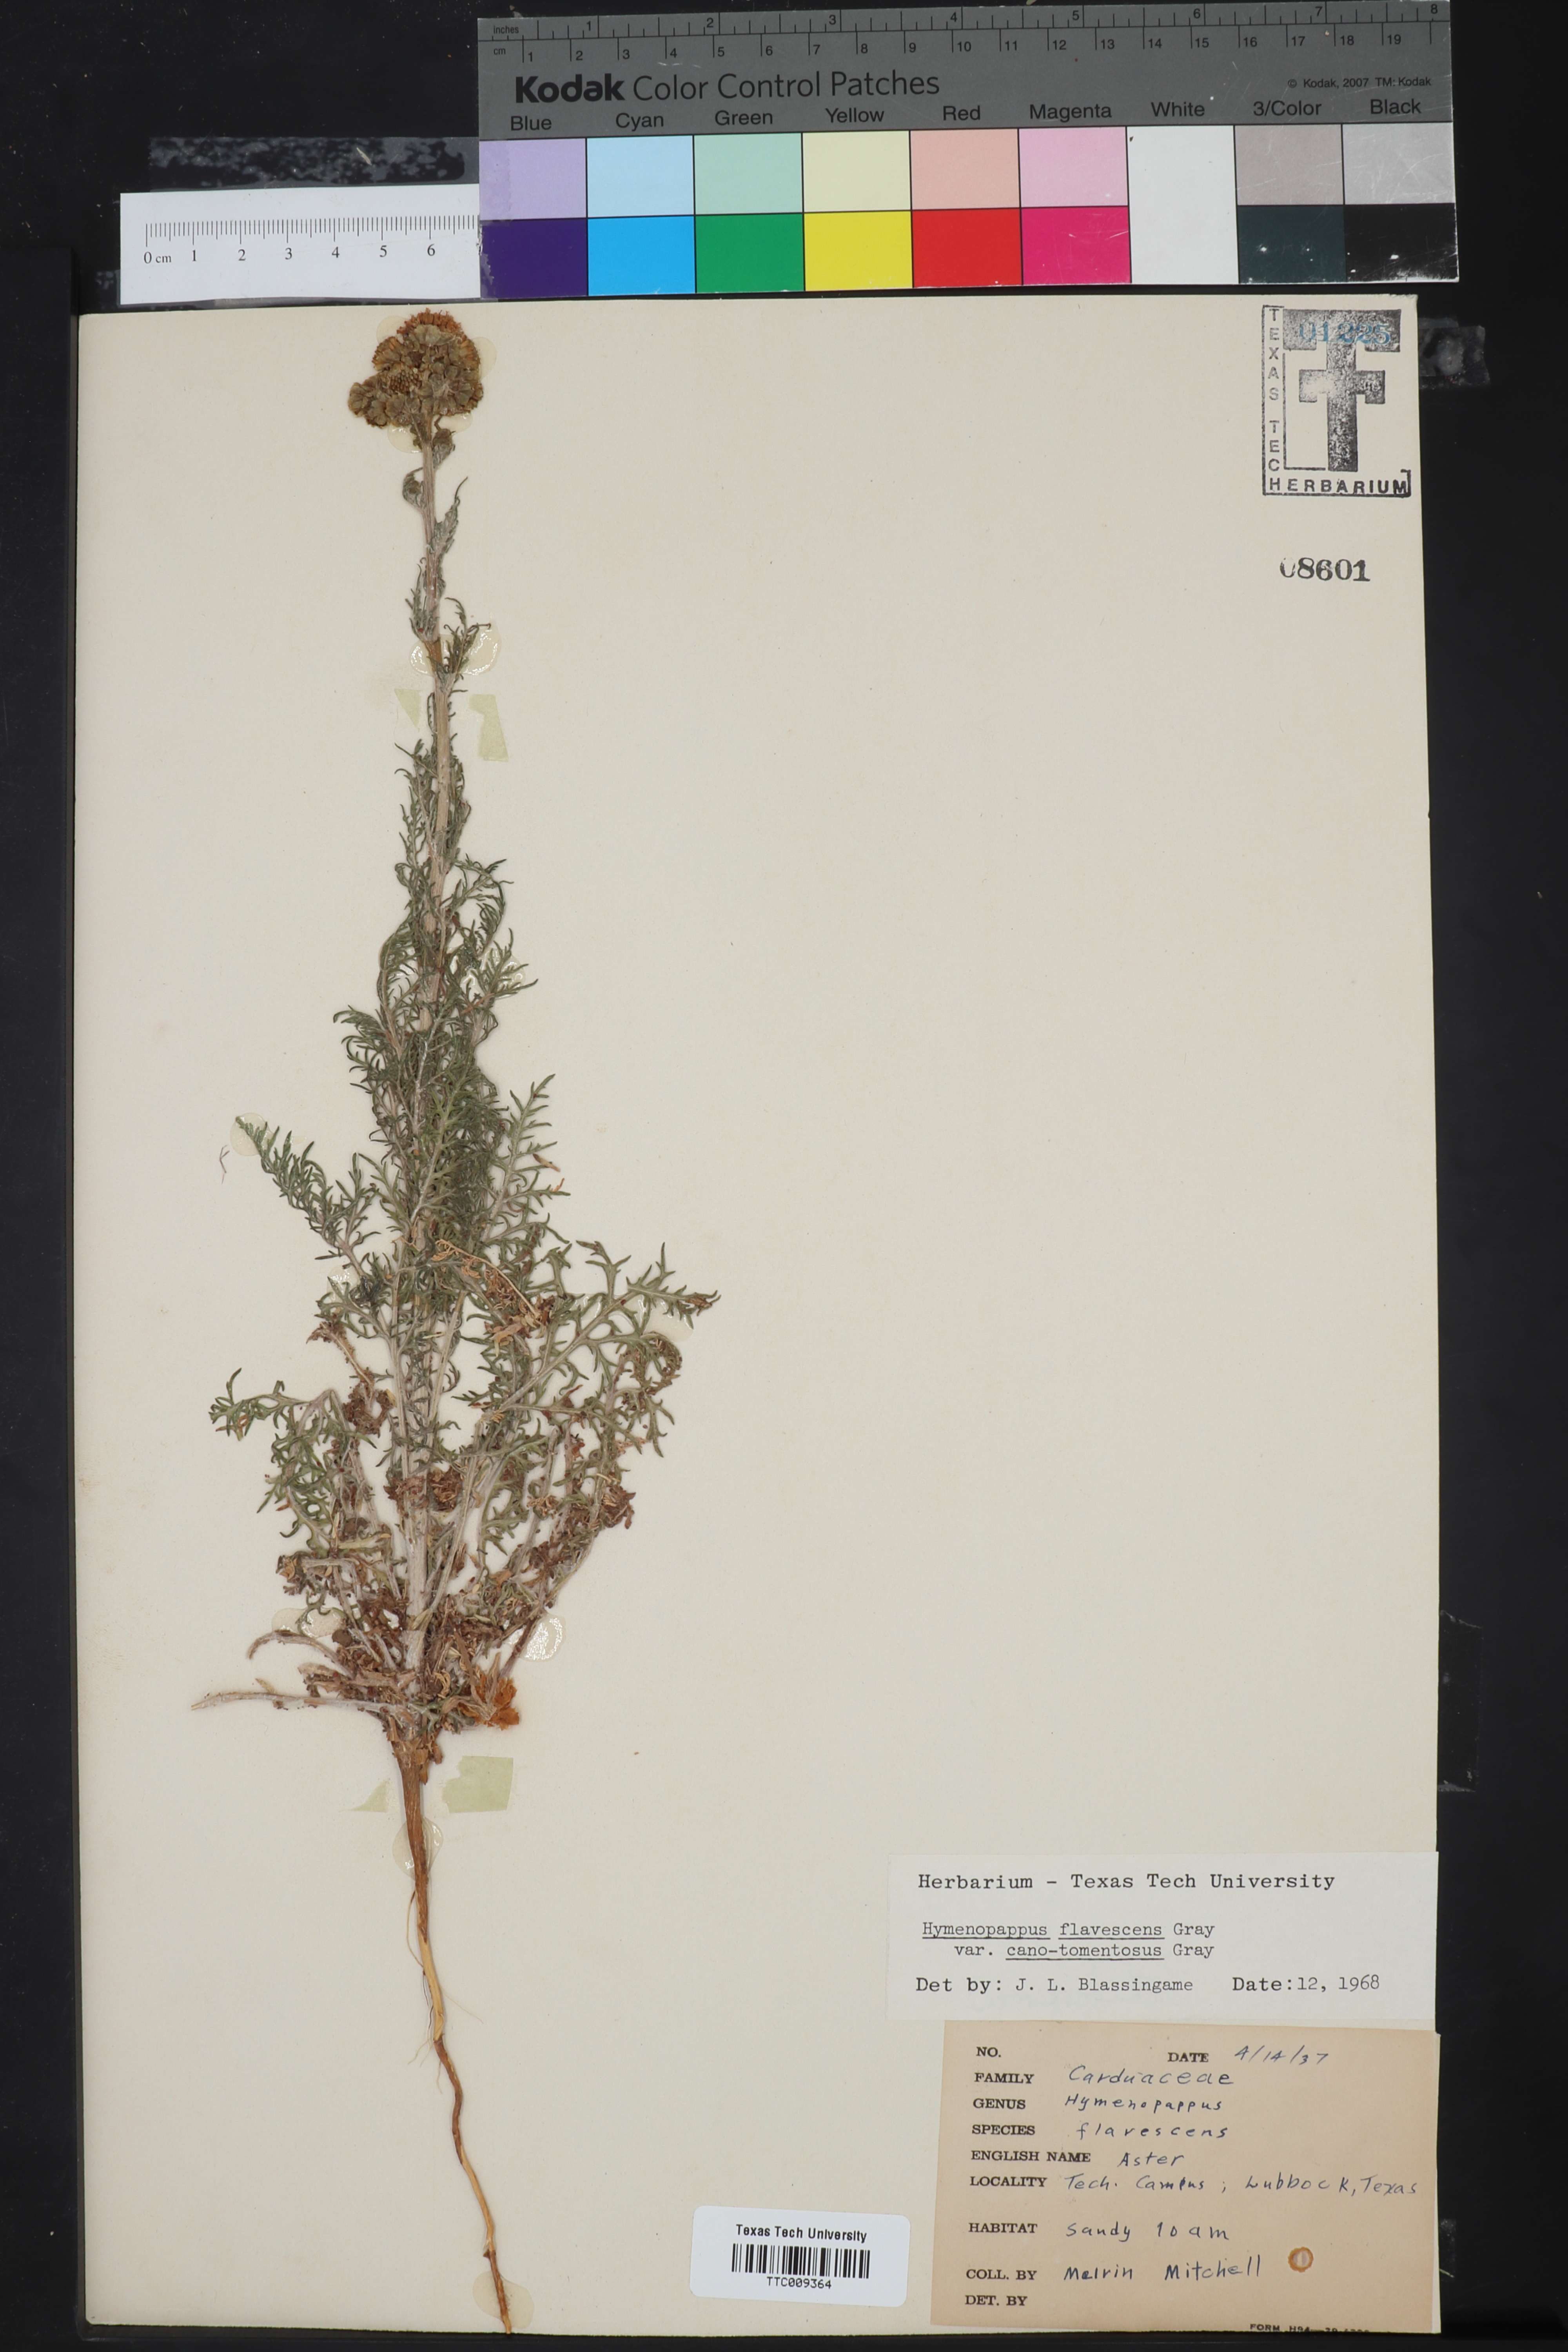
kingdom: Plantae
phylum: Tracheophyta
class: Magnoliopsida
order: Asterales
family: Asteraceae
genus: Hymenopappus
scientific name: Hymenopappus flavescens
